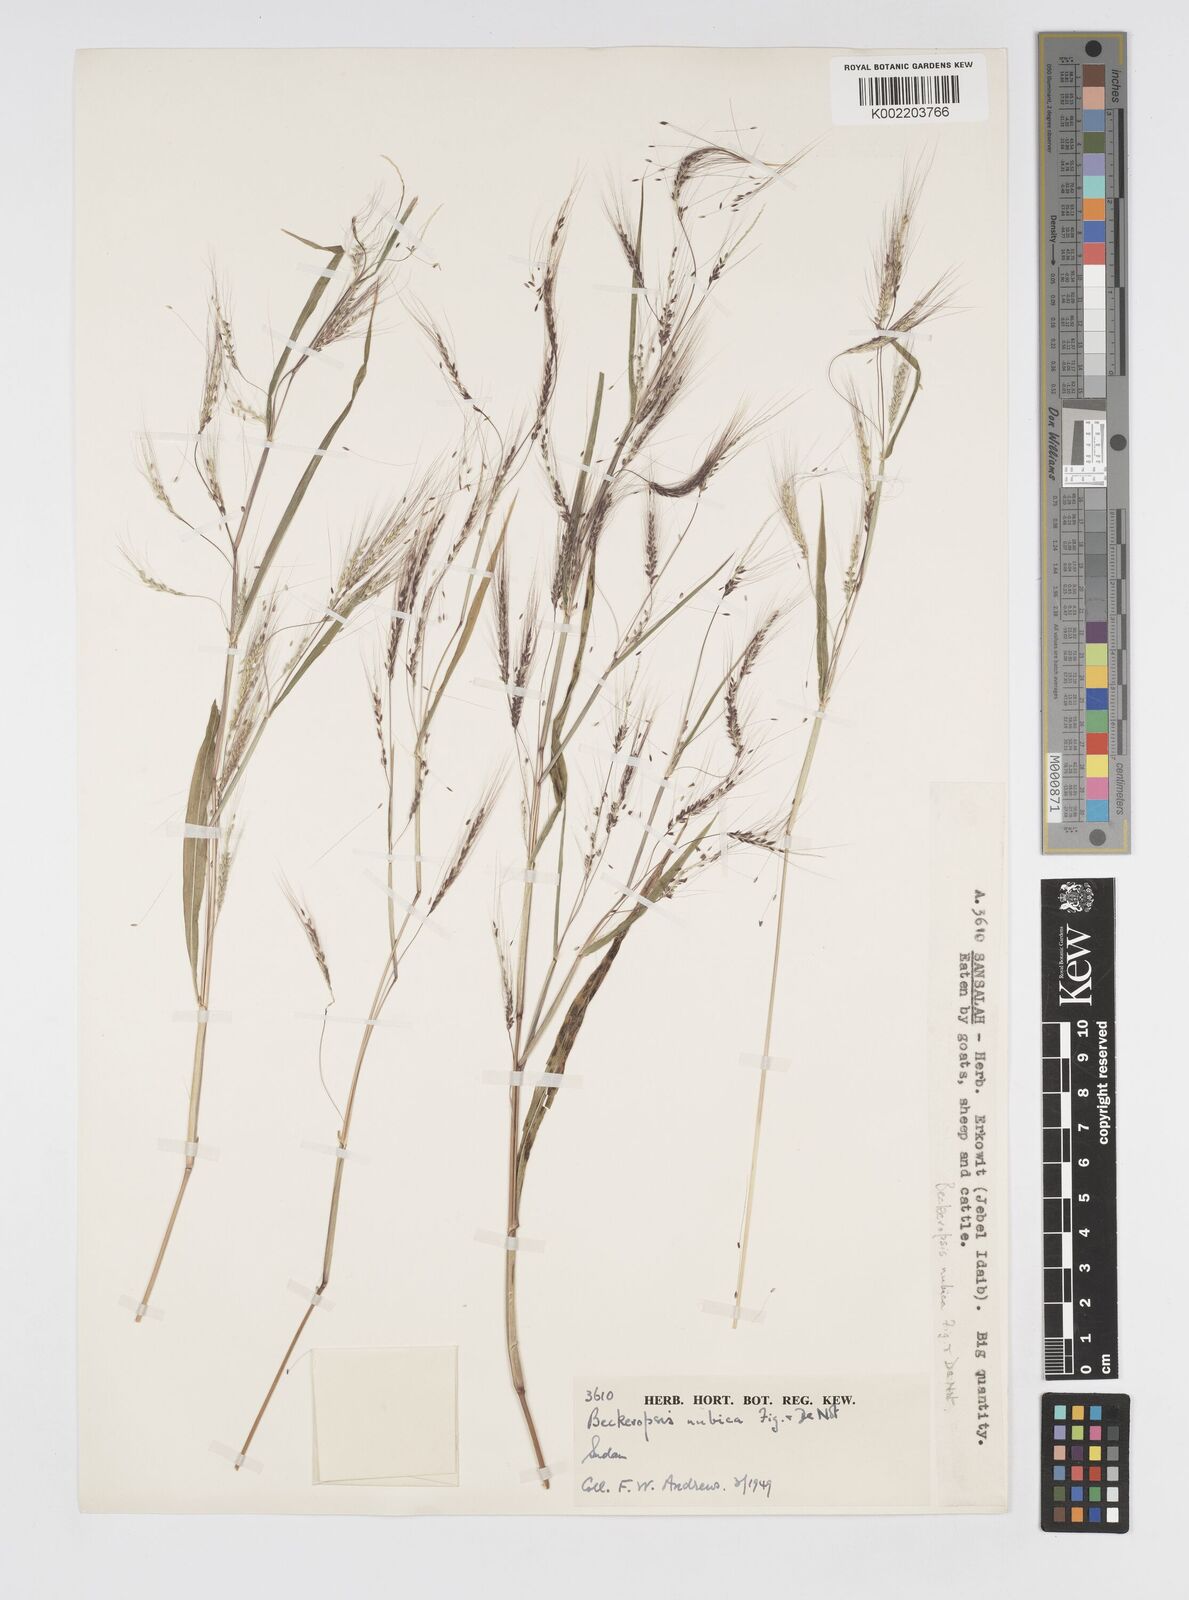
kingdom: Plantae
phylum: Tracheophyta
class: Liliopsida
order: Poales
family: Poaceae
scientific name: Poaceae
